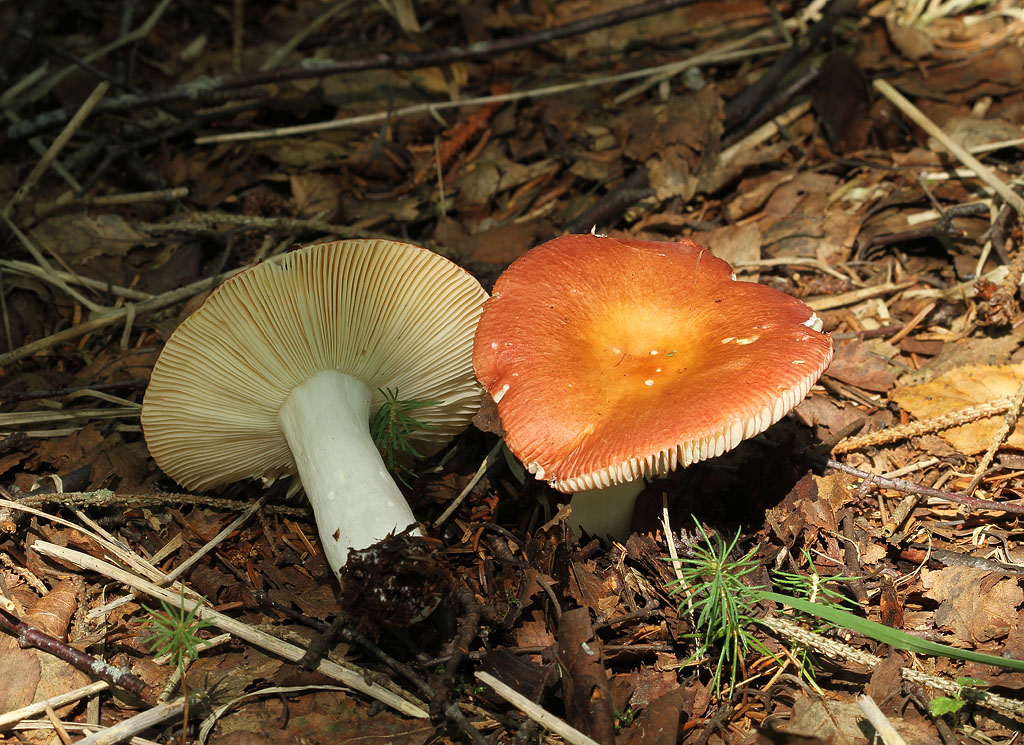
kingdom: Fungi
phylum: Basidiomycota
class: Agaricomycetes
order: Russulales
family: Russulaceae
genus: Russula
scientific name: Russula velenovskyi
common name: orangerød skørhat
